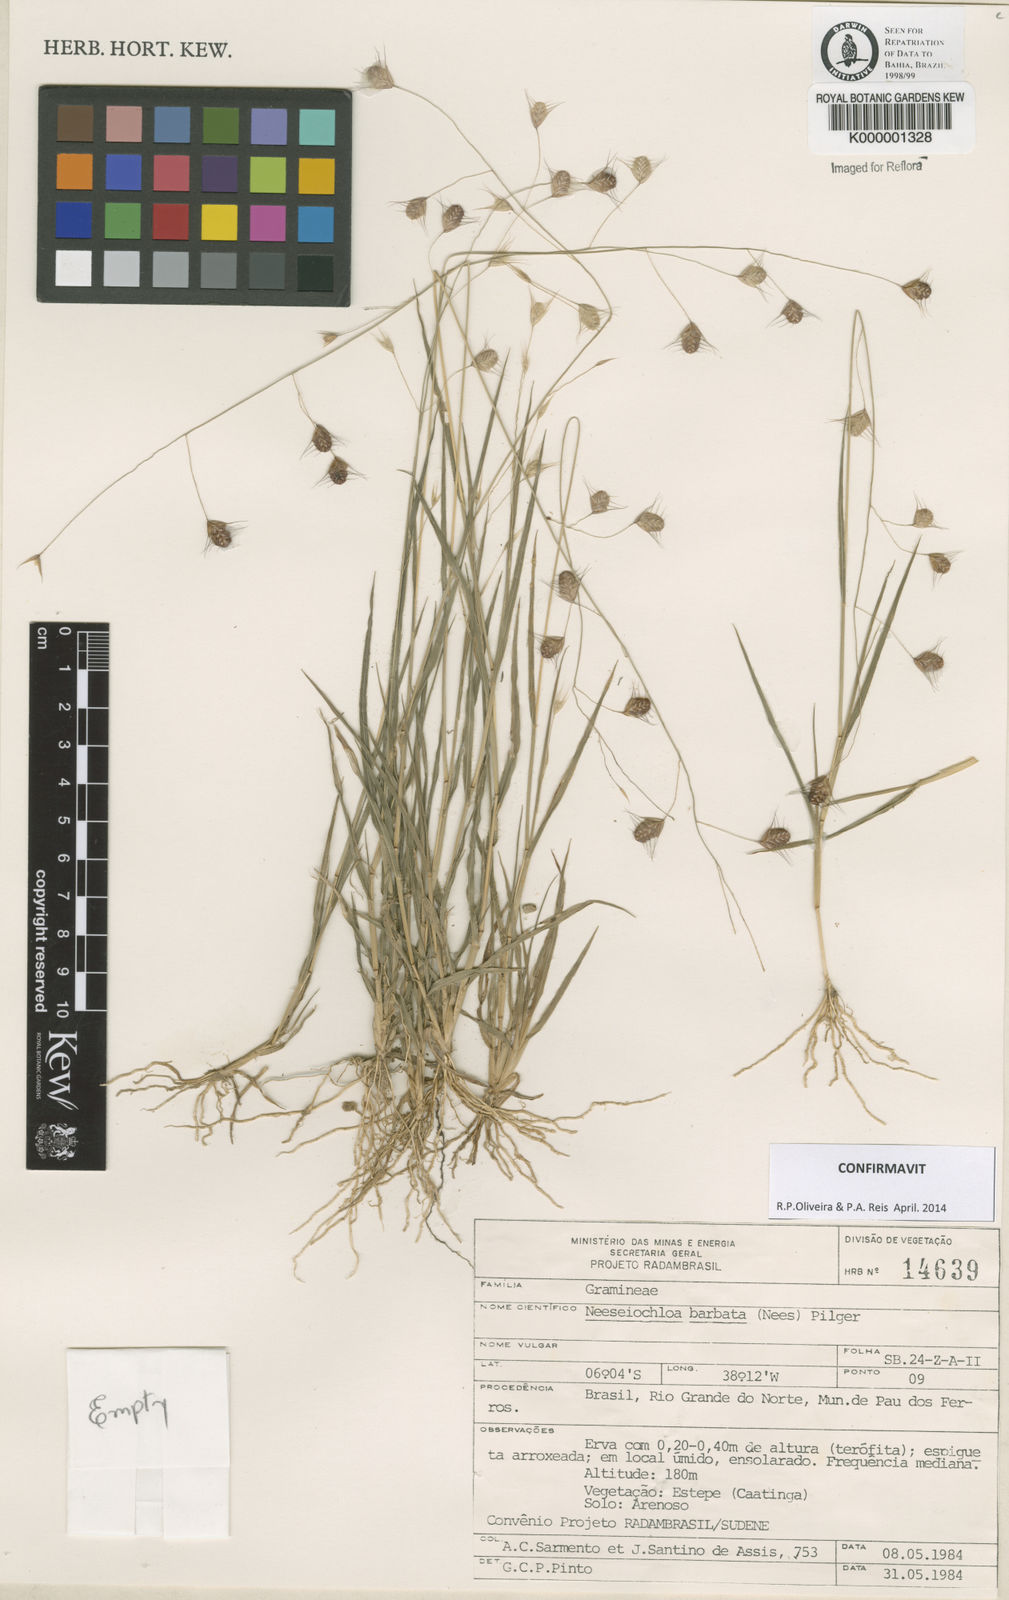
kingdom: Plantae
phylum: Tracheophyta
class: Liliopsida
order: Poales
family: Poaceae
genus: Neesiochloa
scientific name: Neesiochloa barbata
